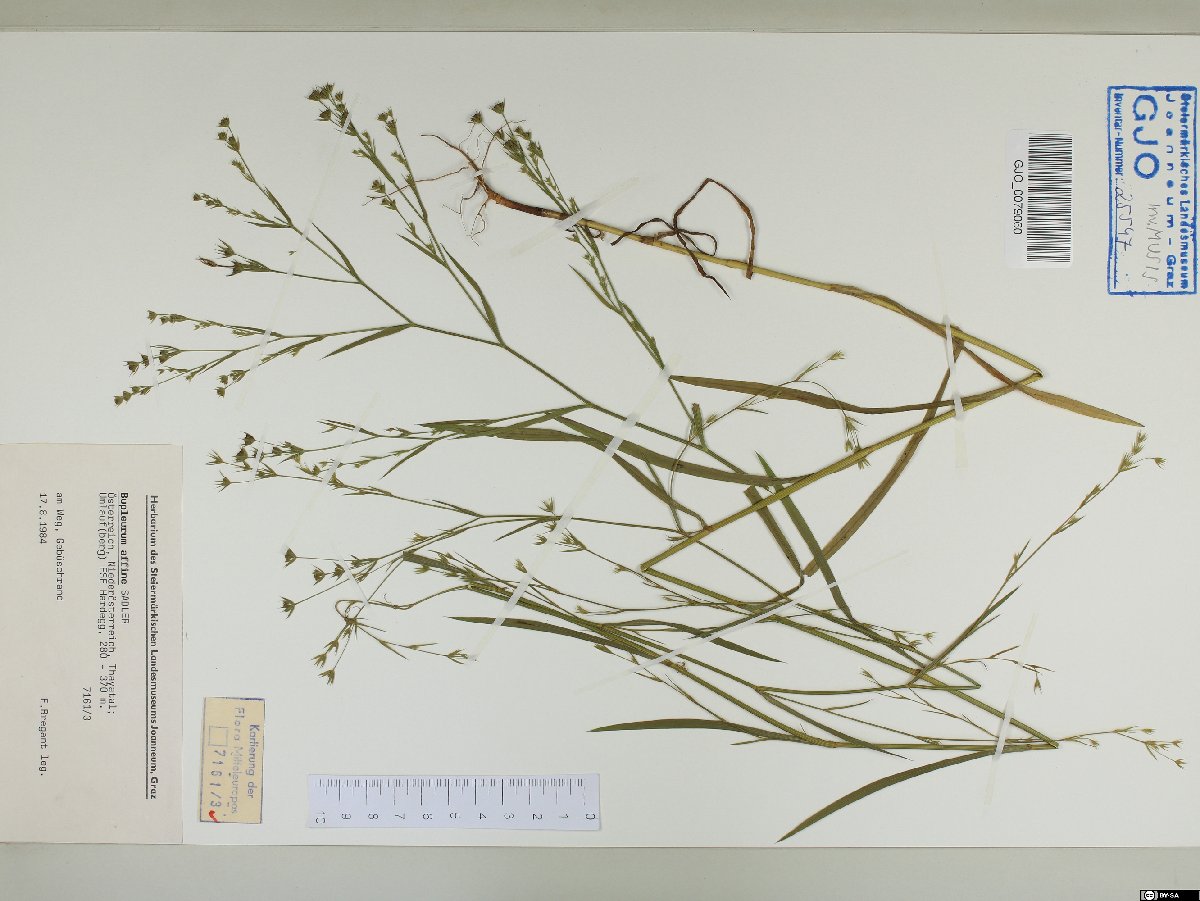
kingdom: Plantae
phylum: Tracheophyta
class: Magnoliopsida
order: Apiales
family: Apiaceae
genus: Bupleurum
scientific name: Bupleurum affine
